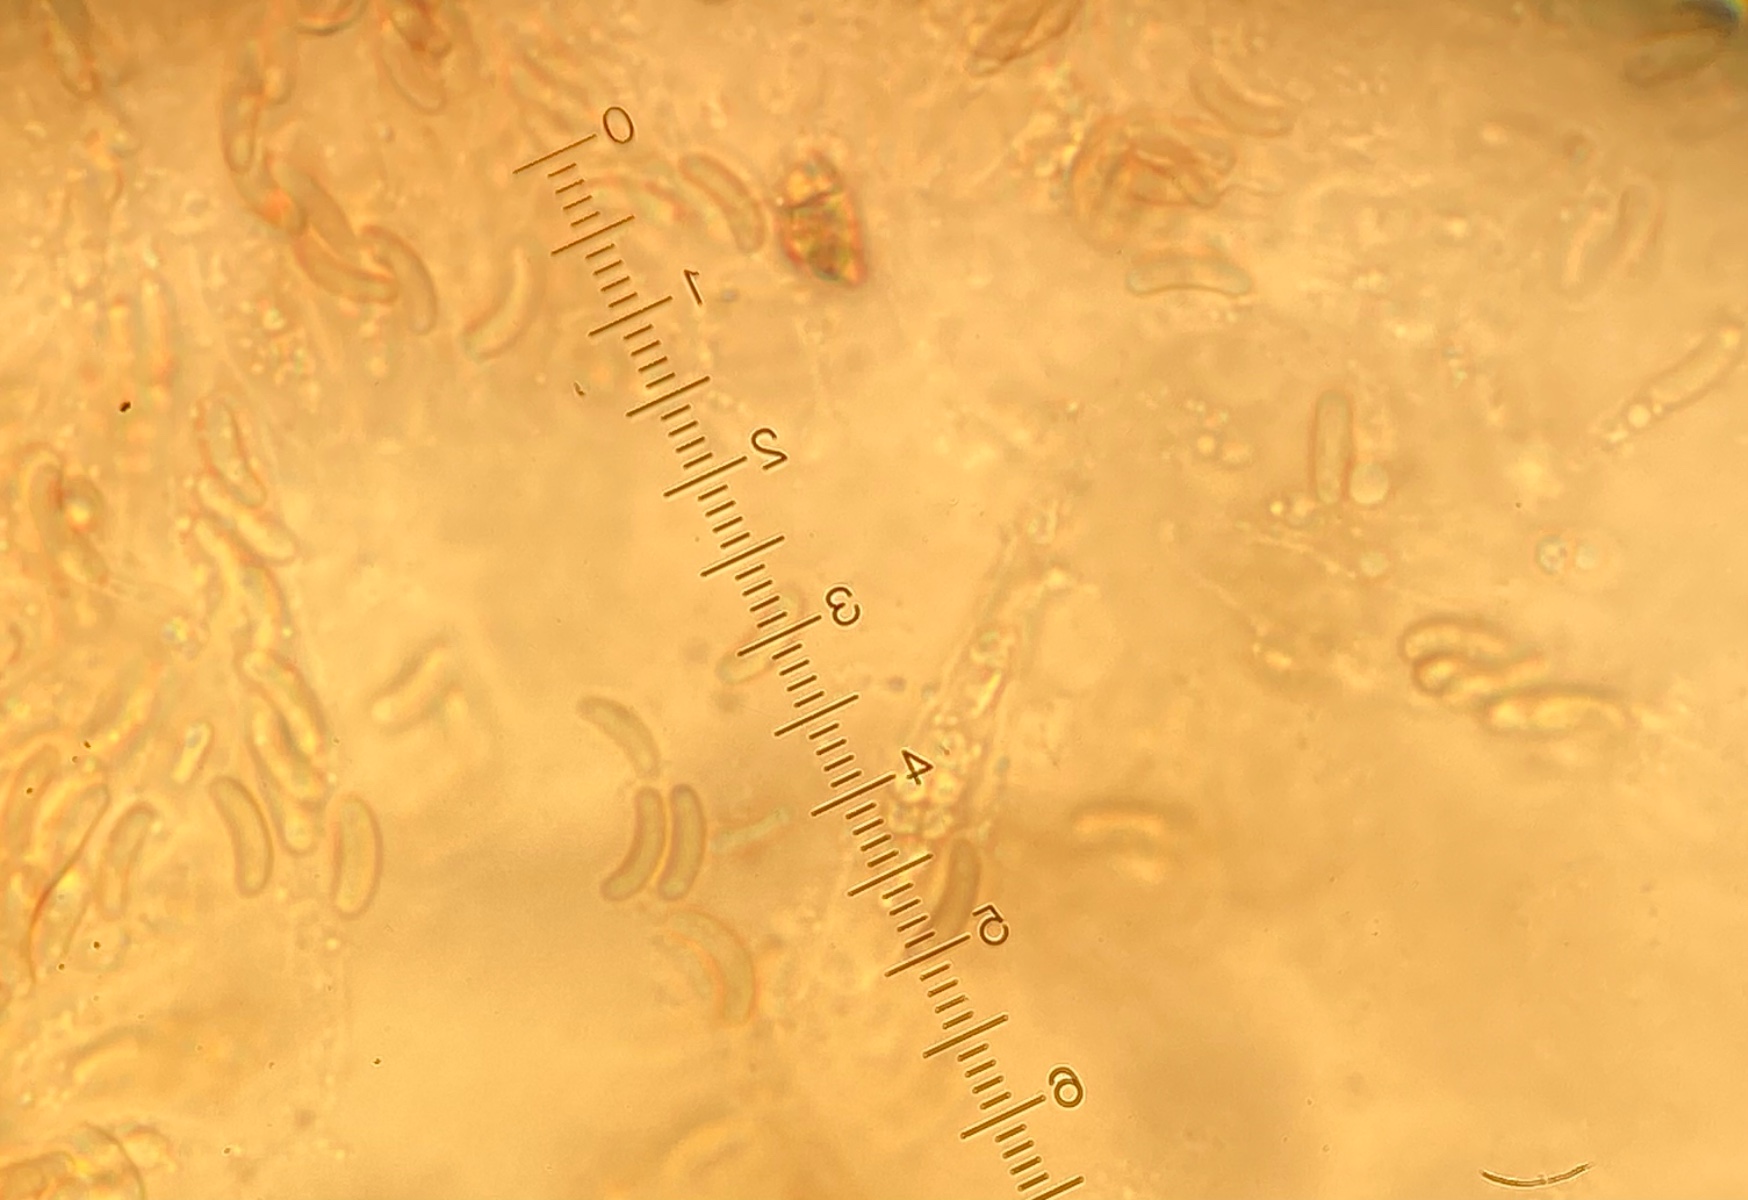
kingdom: Fungi
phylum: Ascomycota
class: Sordariomycetes
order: Xylariales
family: Diatrypaceae
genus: Eutypa
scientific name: Eutypa flavovirens
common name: grønkødet kulskorpe
